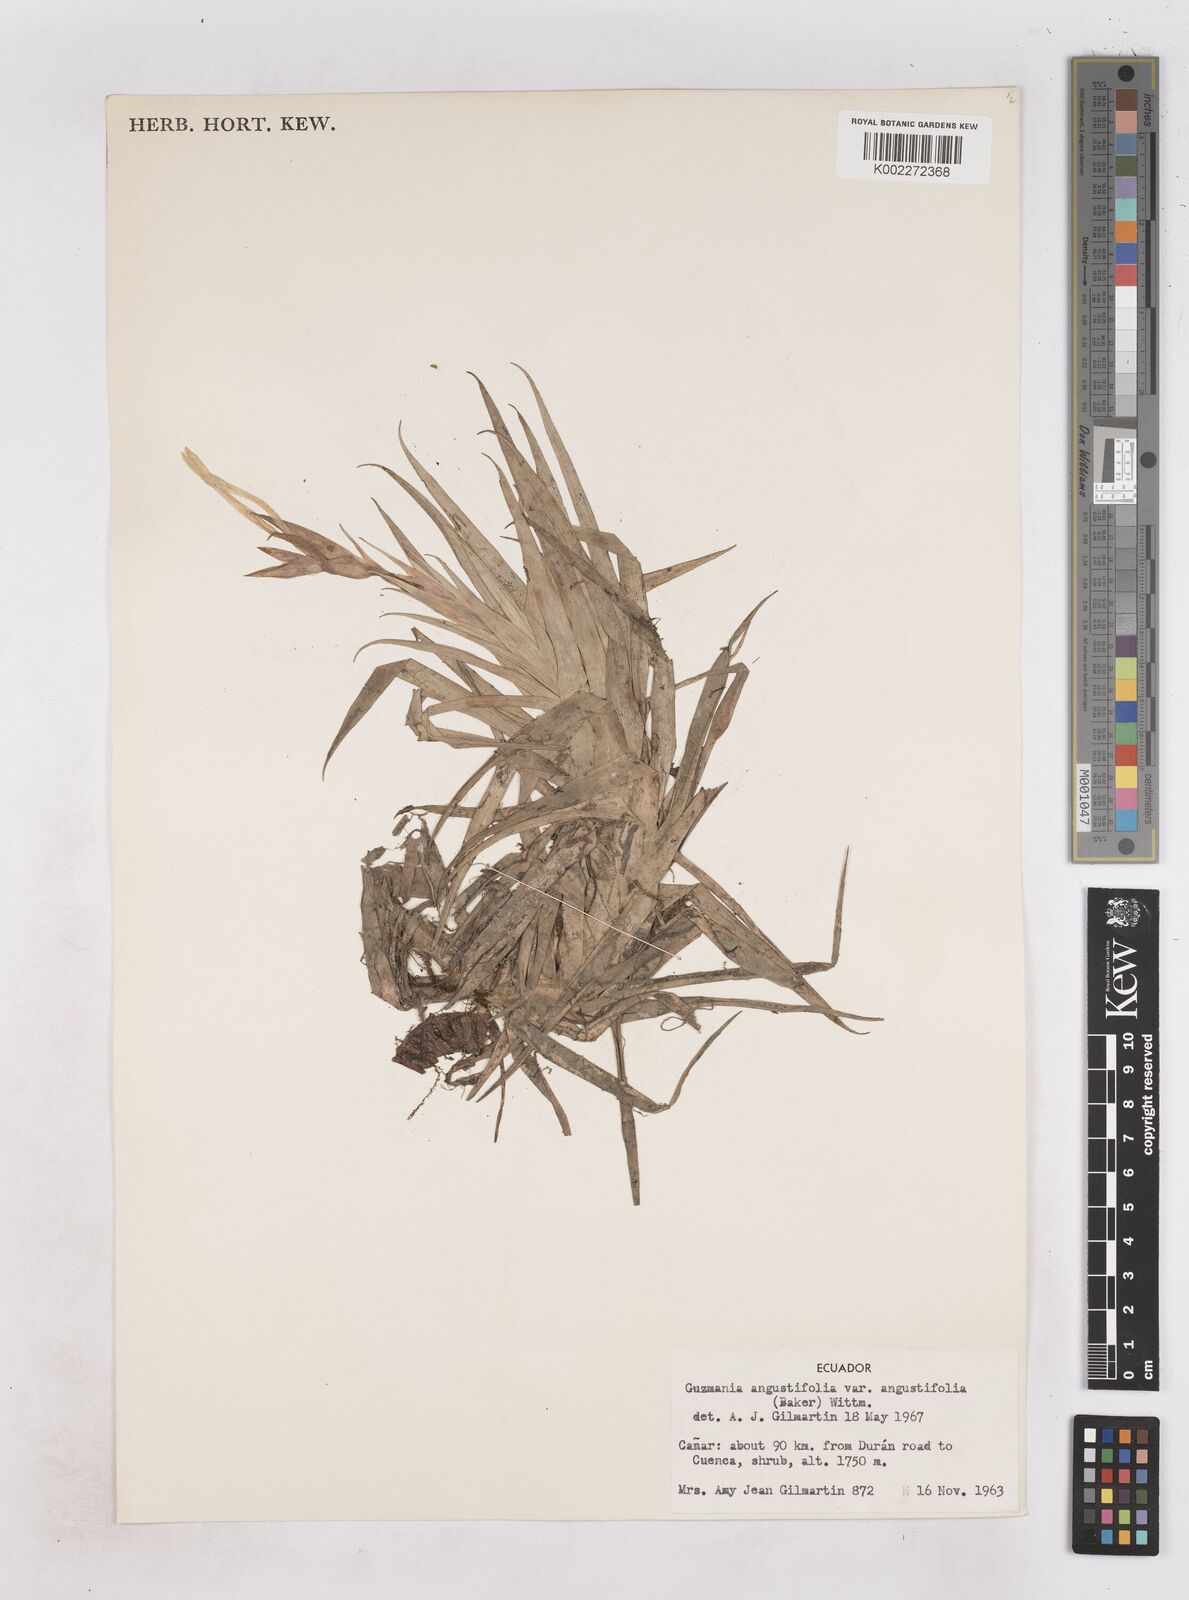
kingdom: Plantae
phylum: Tracheophyta
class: Liliopsida
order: Poales
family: Bromeliaceae
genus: Guzmania
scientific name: Guzmania angustifolia
